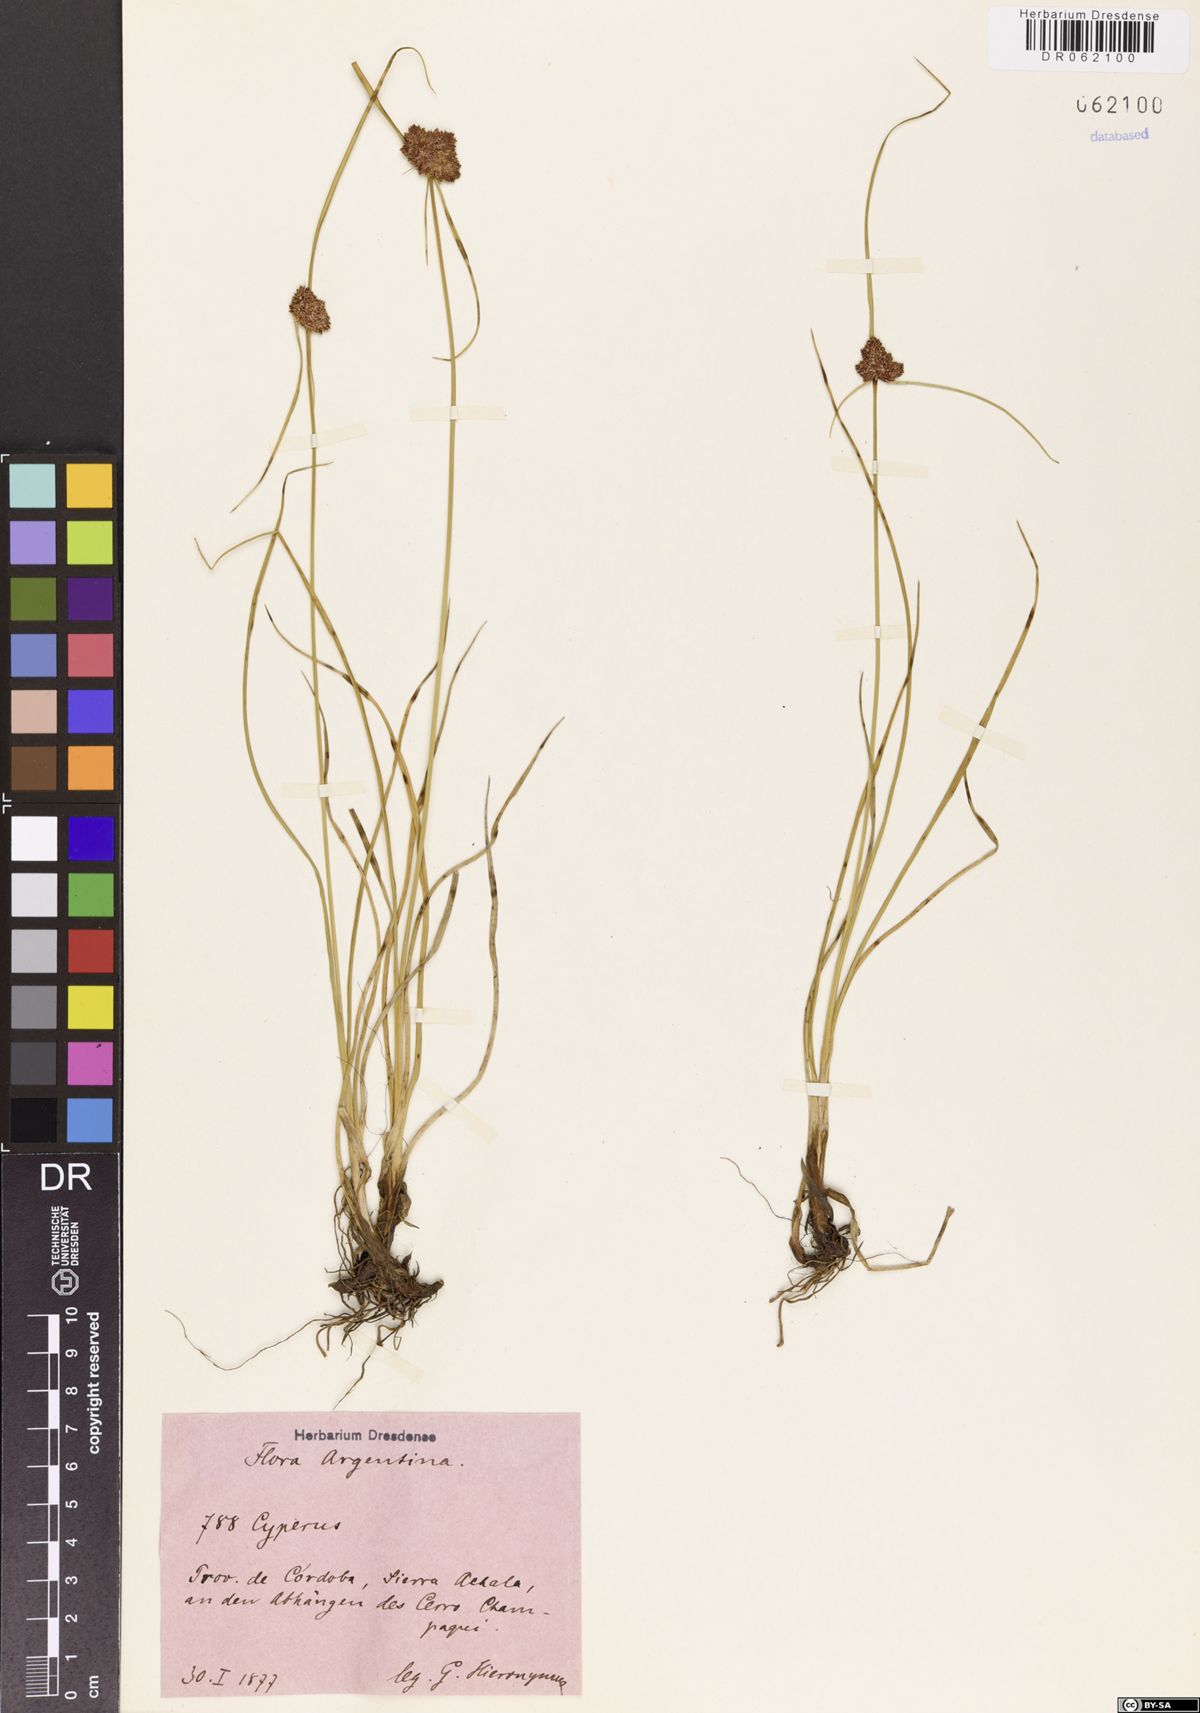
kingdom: Plantae
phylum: Tracheophyta
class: Liliopsida
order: Poales
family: Cyperaceae
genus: Cyperus
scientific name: Cyperus reflexus
